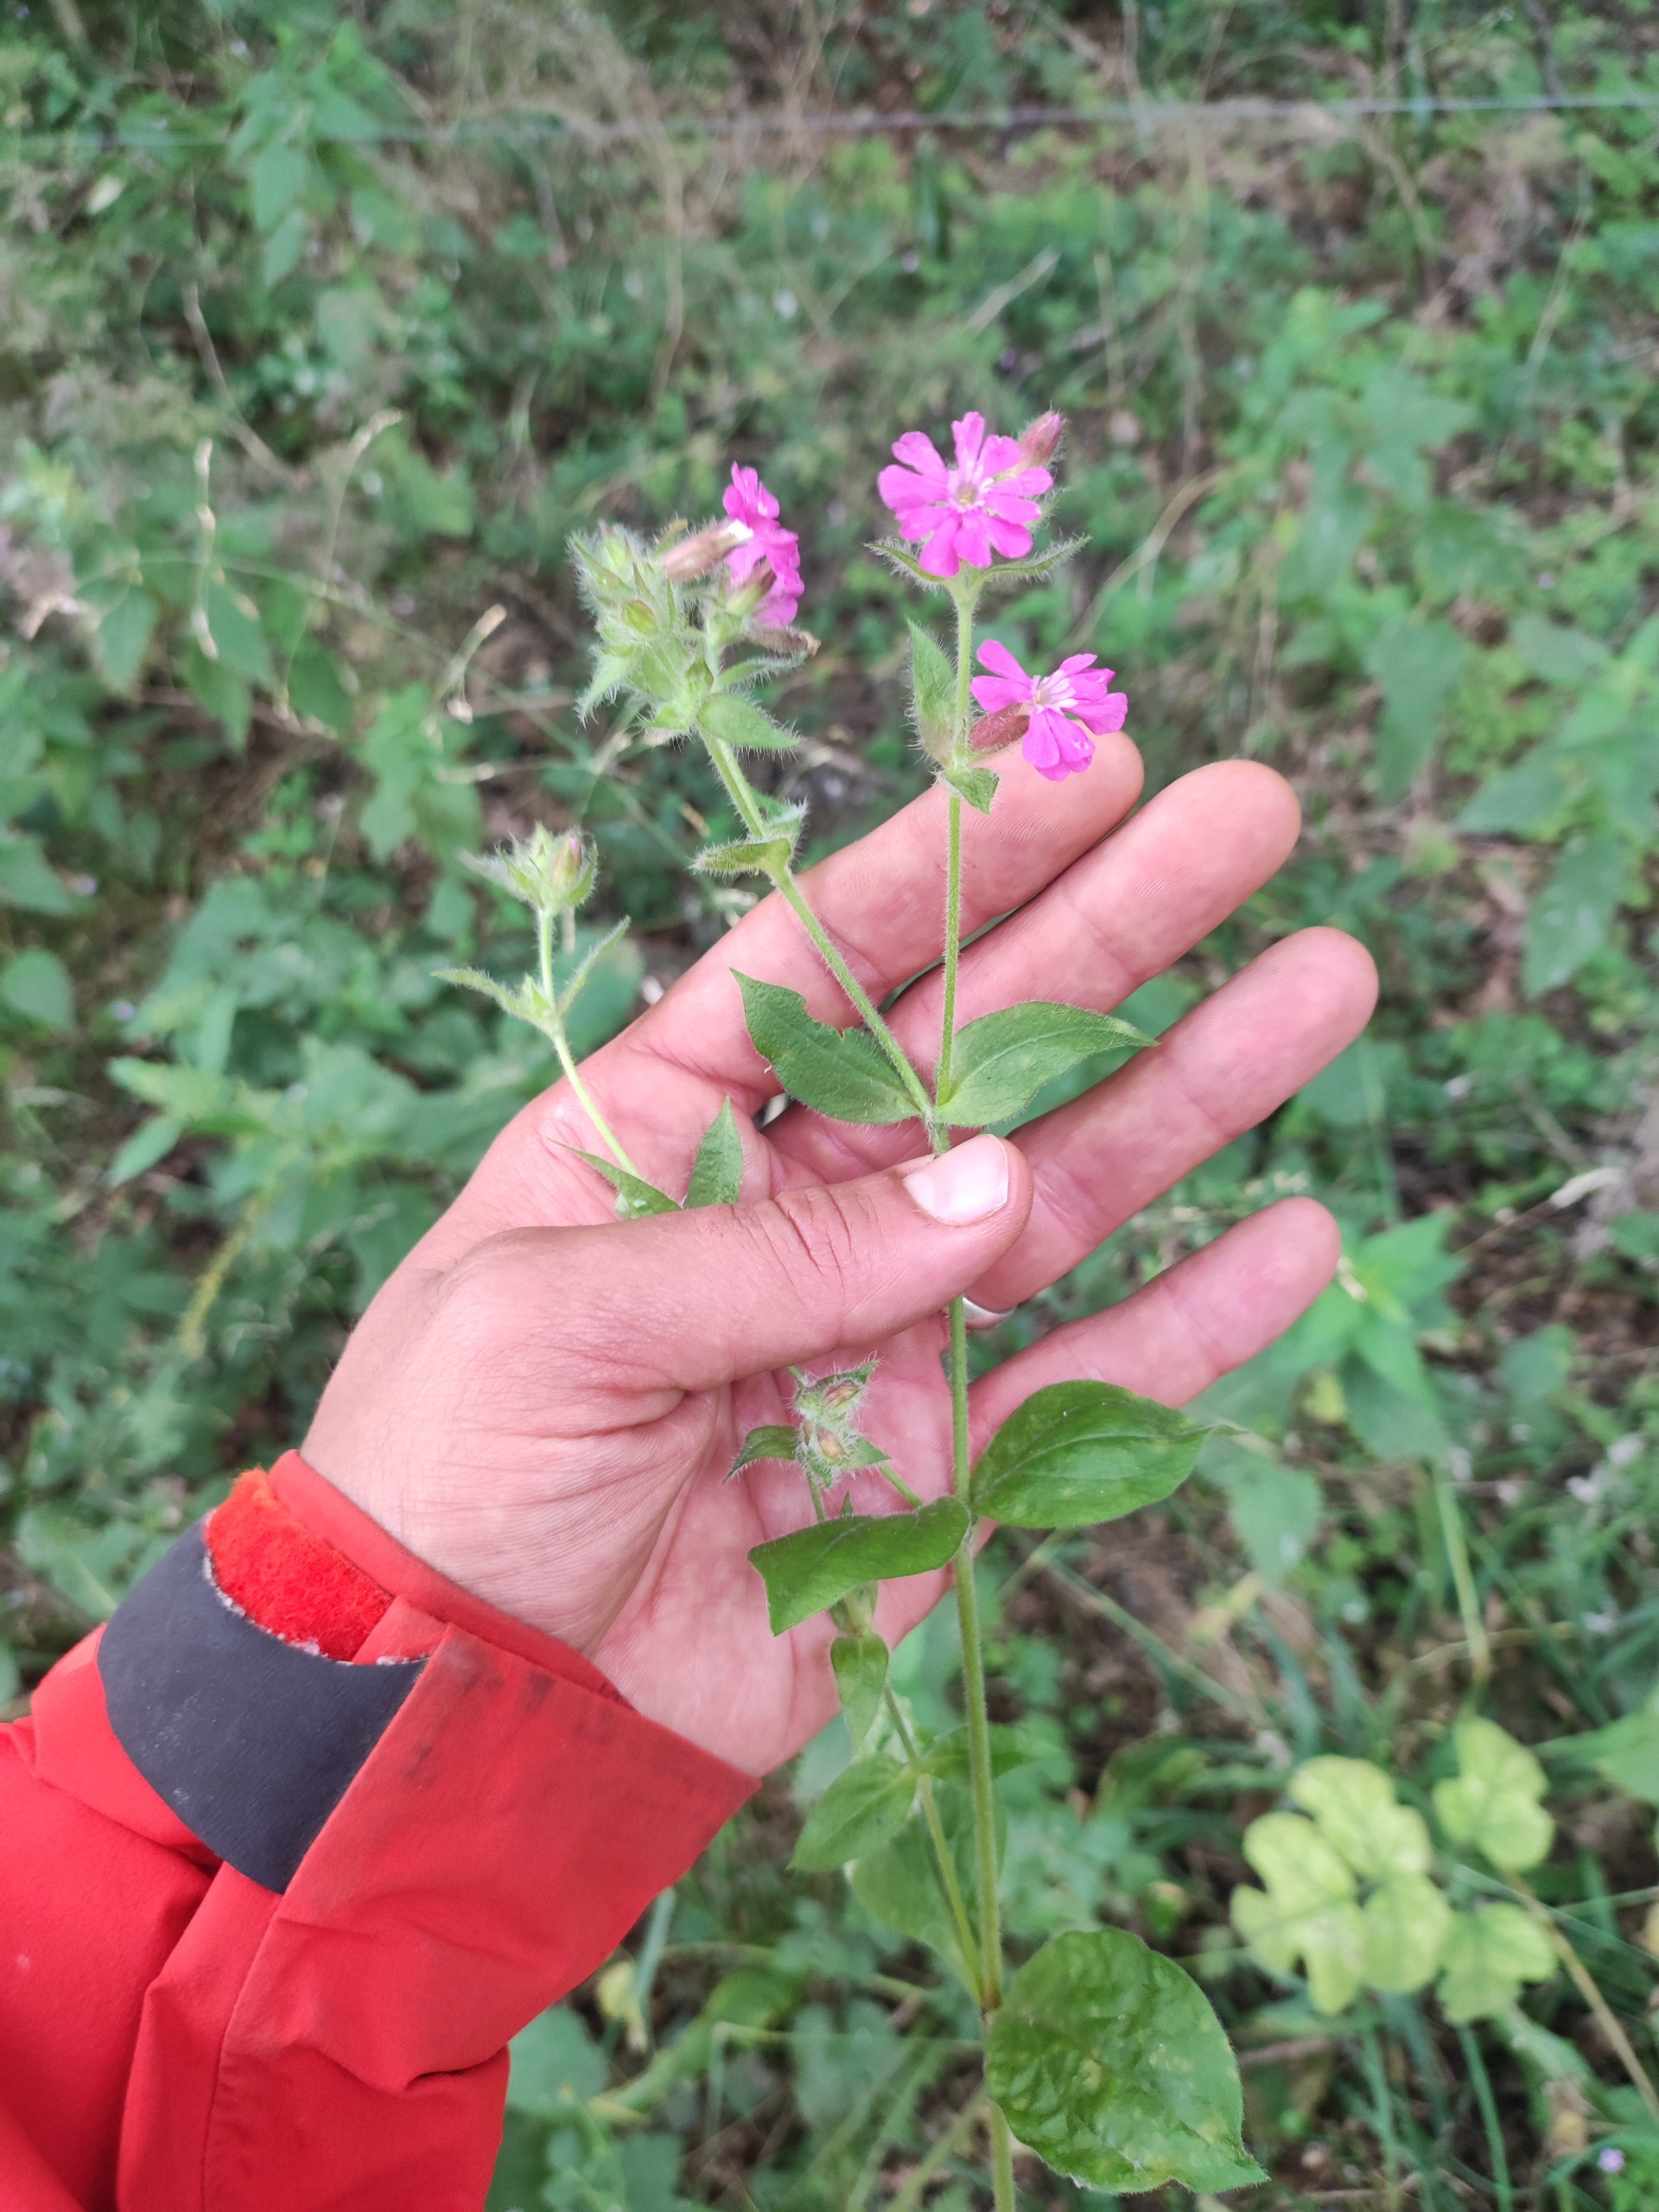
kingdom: Plantae
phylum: Tracheophyta
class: Magnoliopsida
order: Caryophyllales
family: Caryophyllaceae
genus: Silene
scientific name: Silene dioica
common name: Dagpragtstjerne
